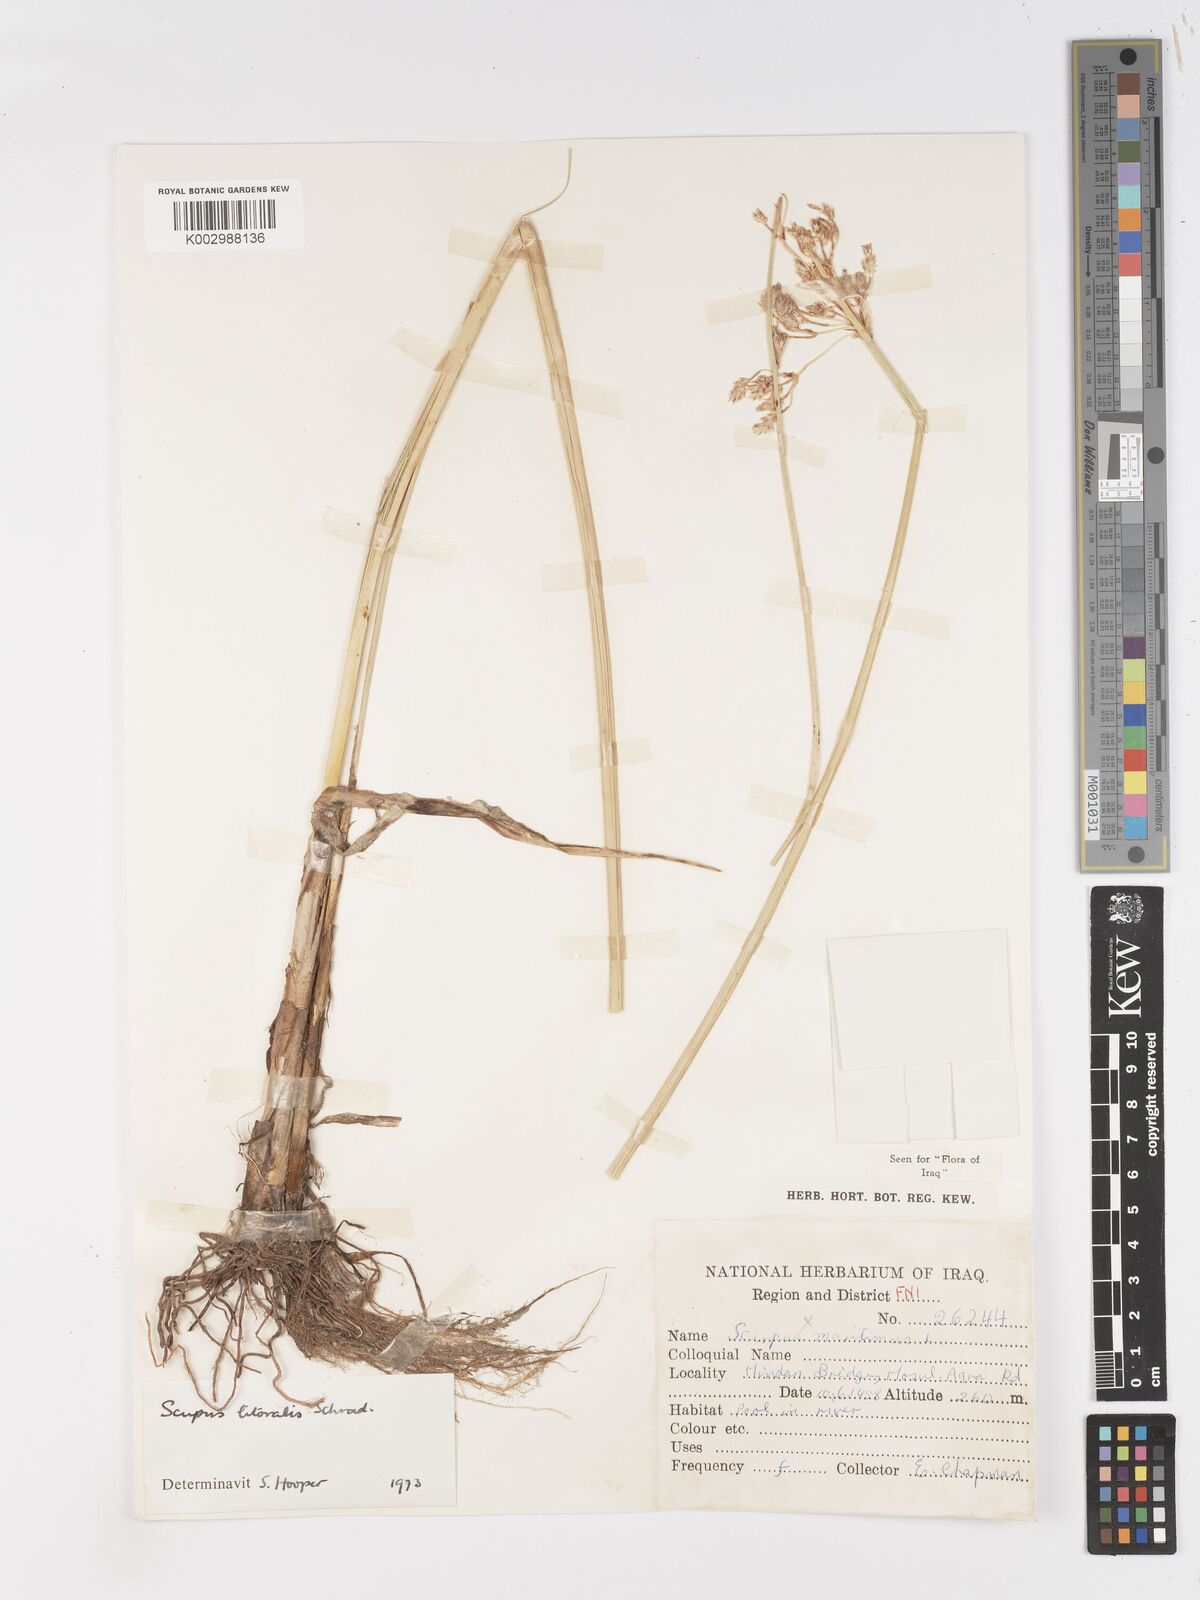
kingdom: Plantae
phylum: Tracheophyta
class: Liliopsida
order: Poales
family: Cyperaceae
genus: Schoenoplectus
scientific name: Schoenoplectus litoralis
